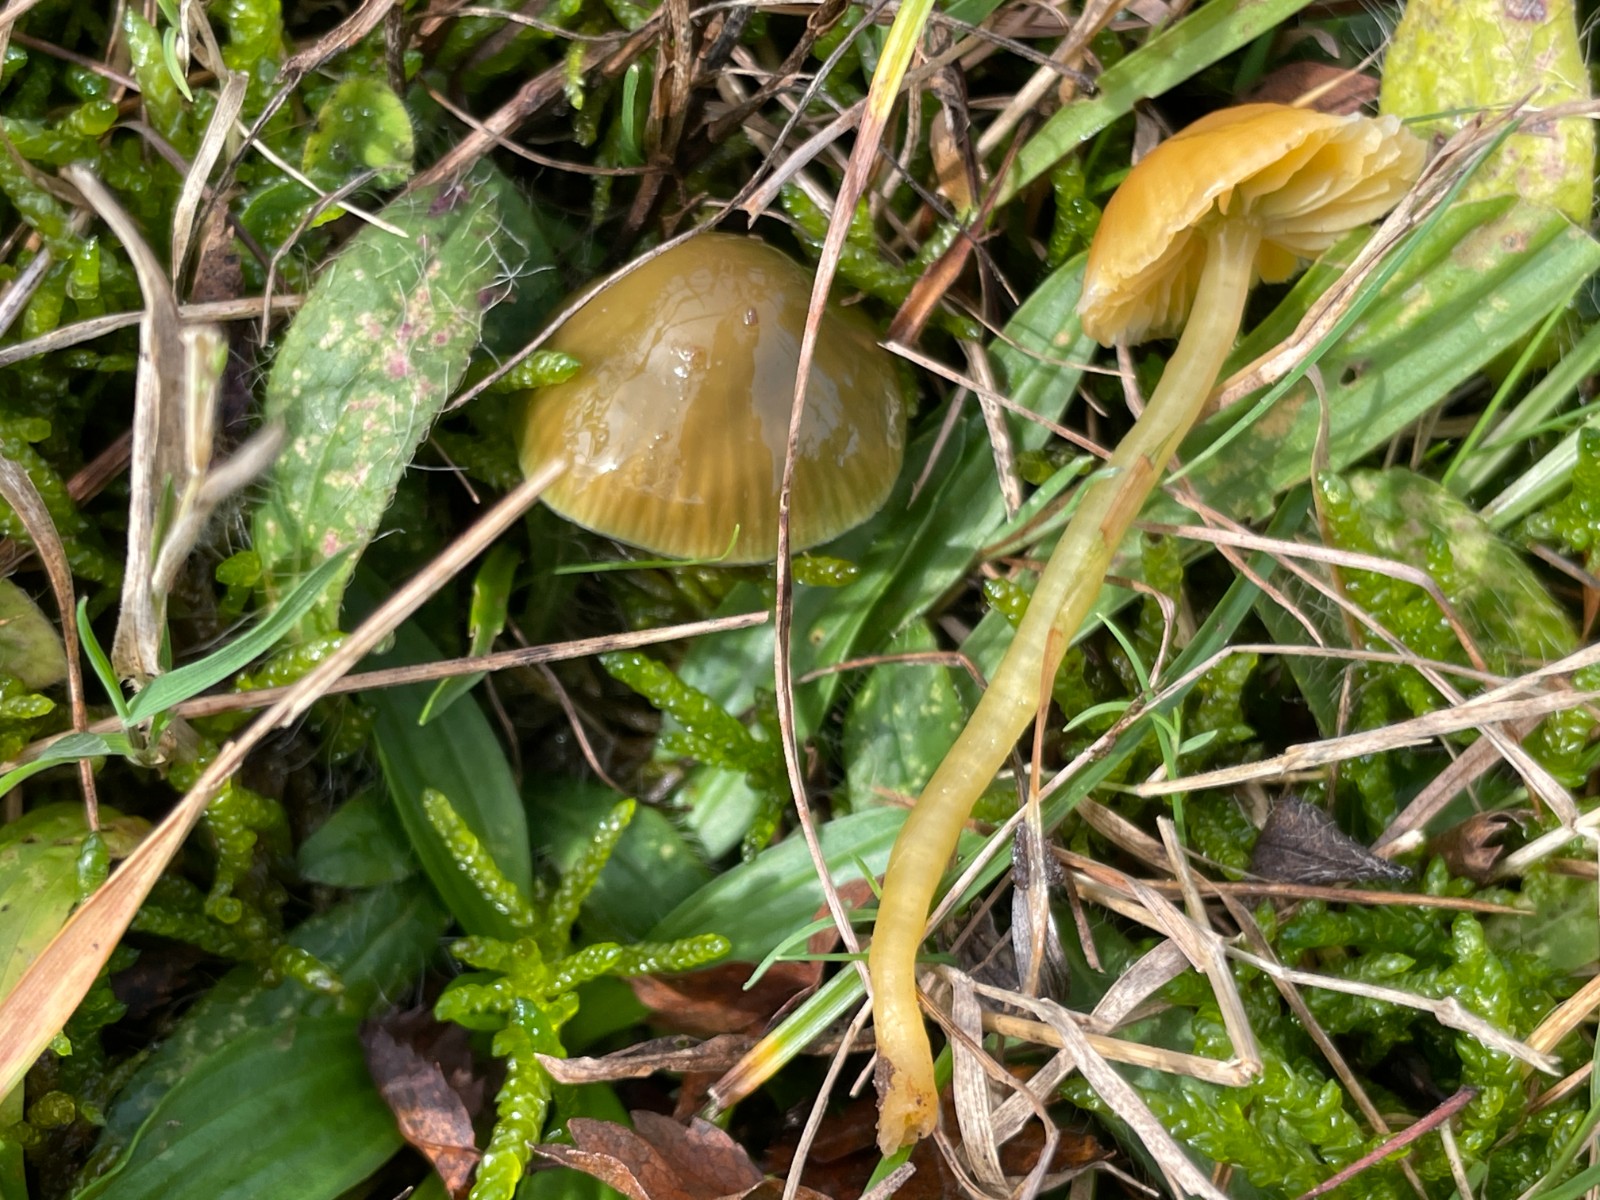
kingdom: Fungi
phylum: Basidiomycota
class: Agaricomycetes
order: Agaricales
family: Hygrophoraceae
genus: Gliophorus
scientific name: Gliophorus psittacinus
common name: papegøje-vokshat
